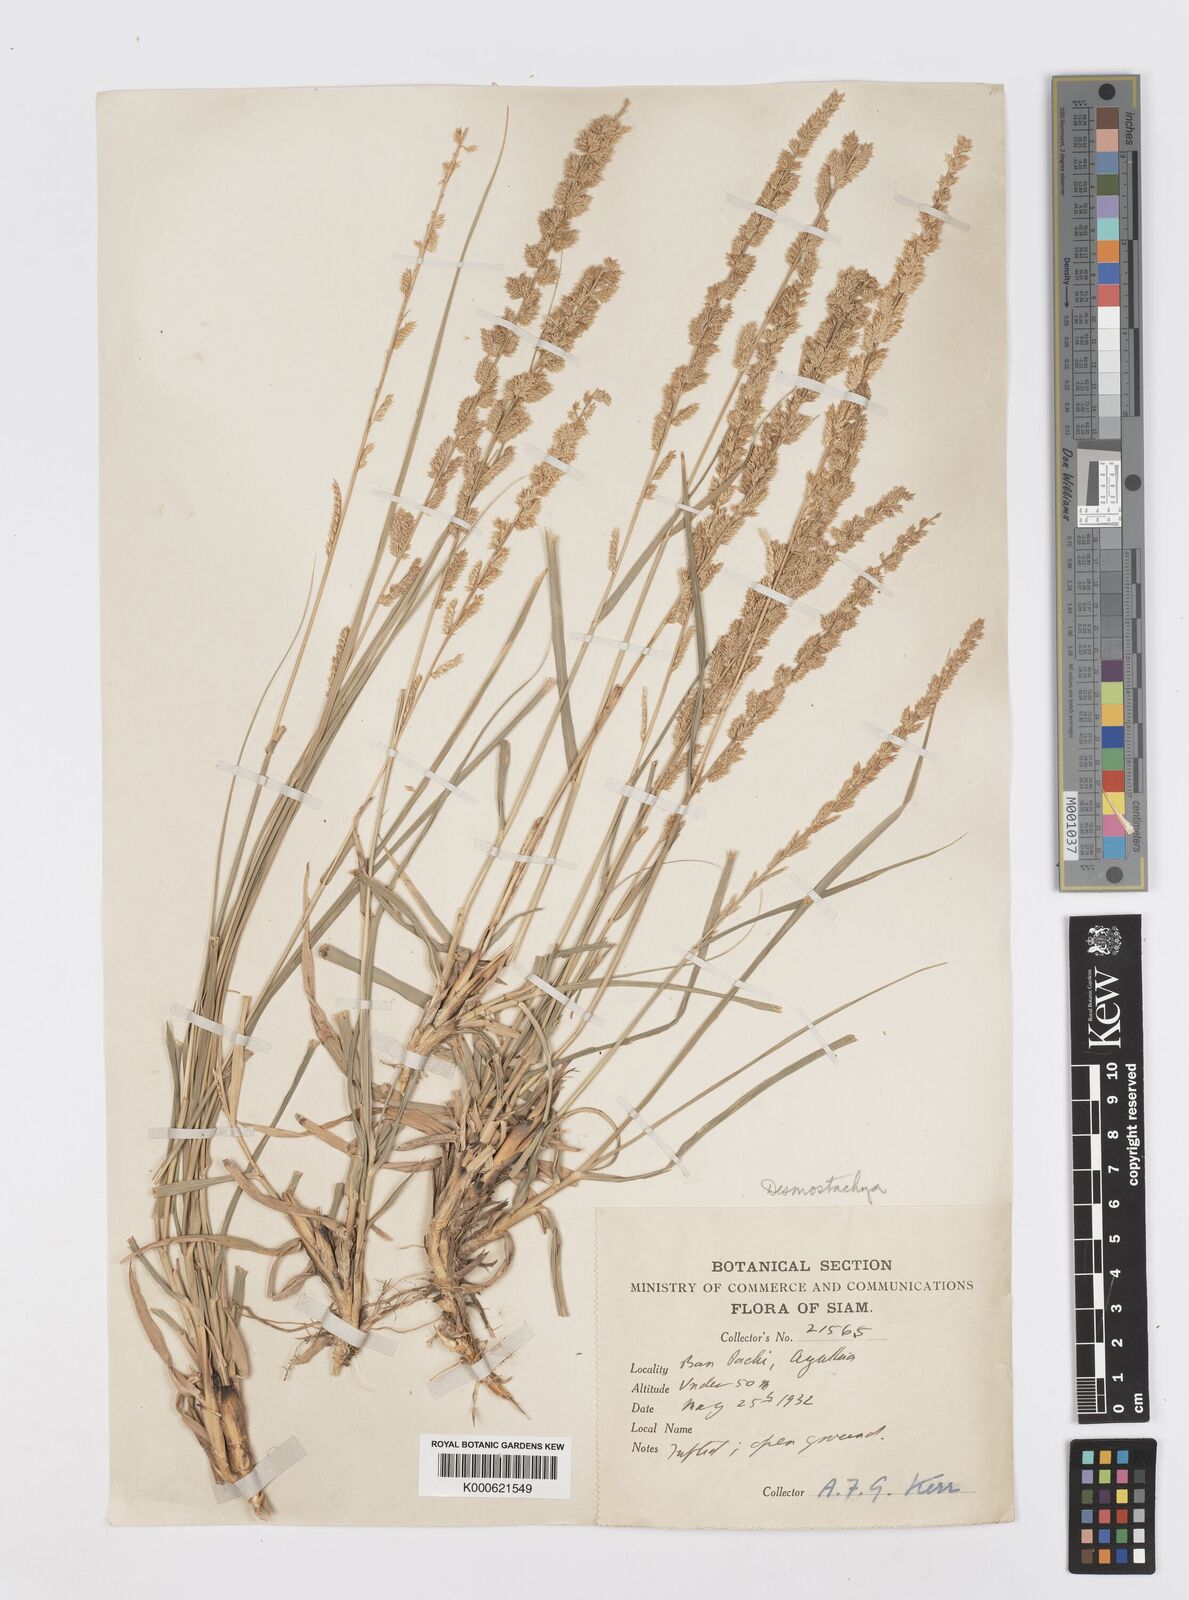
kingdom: Plantae
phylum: Tracheophyta
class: Liliopsida
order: Poales
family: Poaceae
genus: Desmostachya
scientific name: Desmostachya bipinnata
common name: Crowfoot grass
